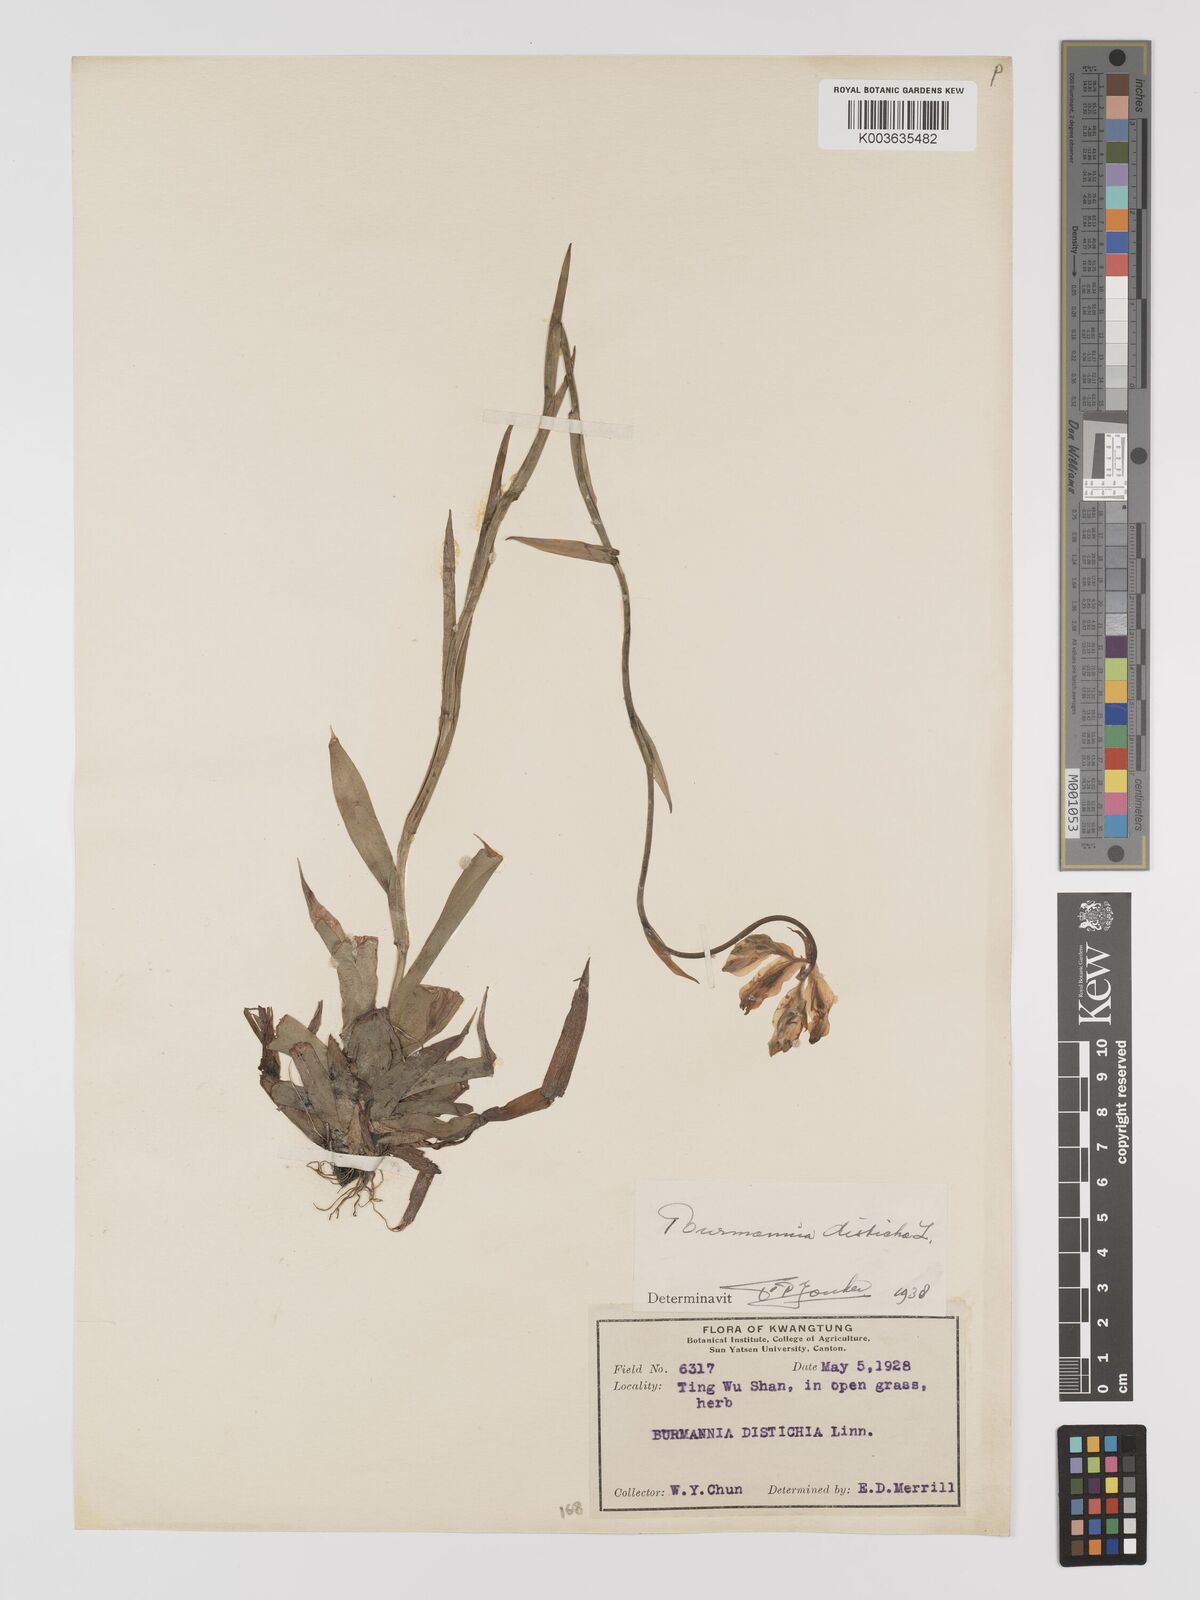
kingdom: Plantae
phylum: Tracheophyta
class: Liliopsida
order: Dioscoreales
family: Burmanniaceae
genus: Burmannia
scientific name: Burmannia disticha
